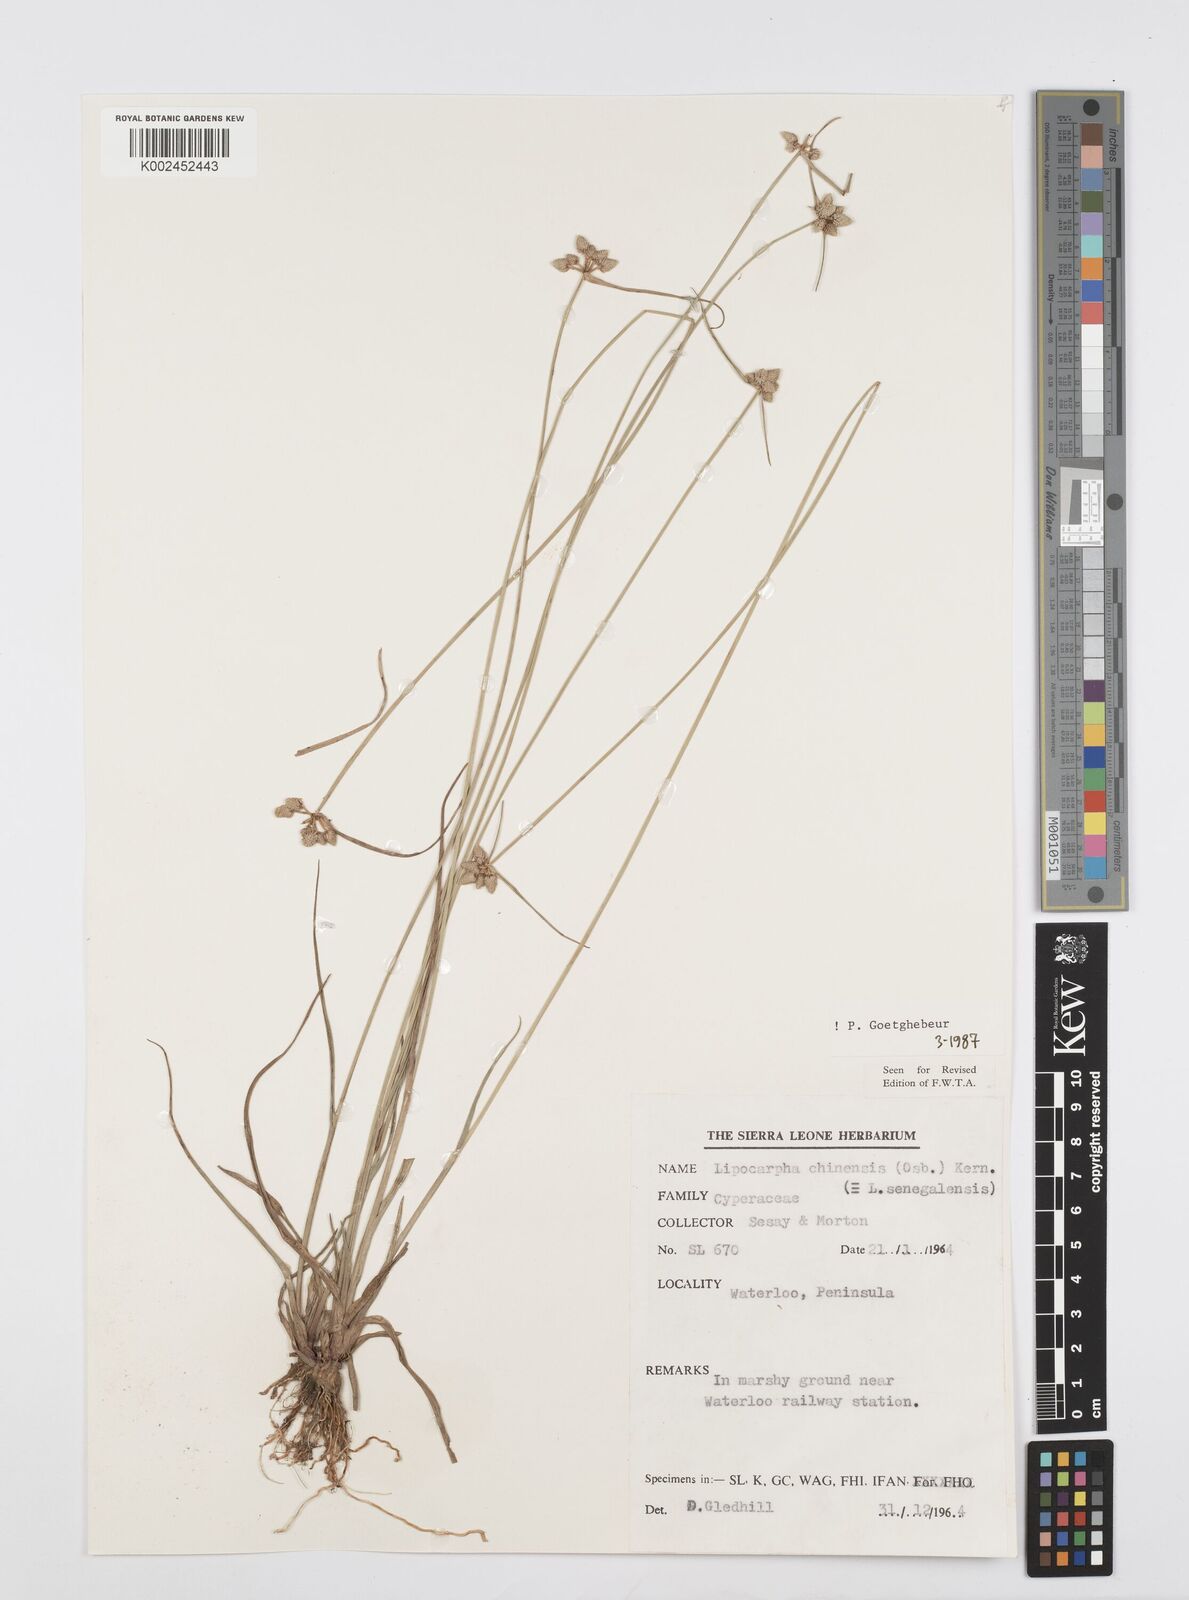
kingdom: Plantae
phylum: Tracheophyta
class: Liliopsida
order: Poales
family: Cyperaceae
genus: Cyperus
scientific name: Cyperus albescens
